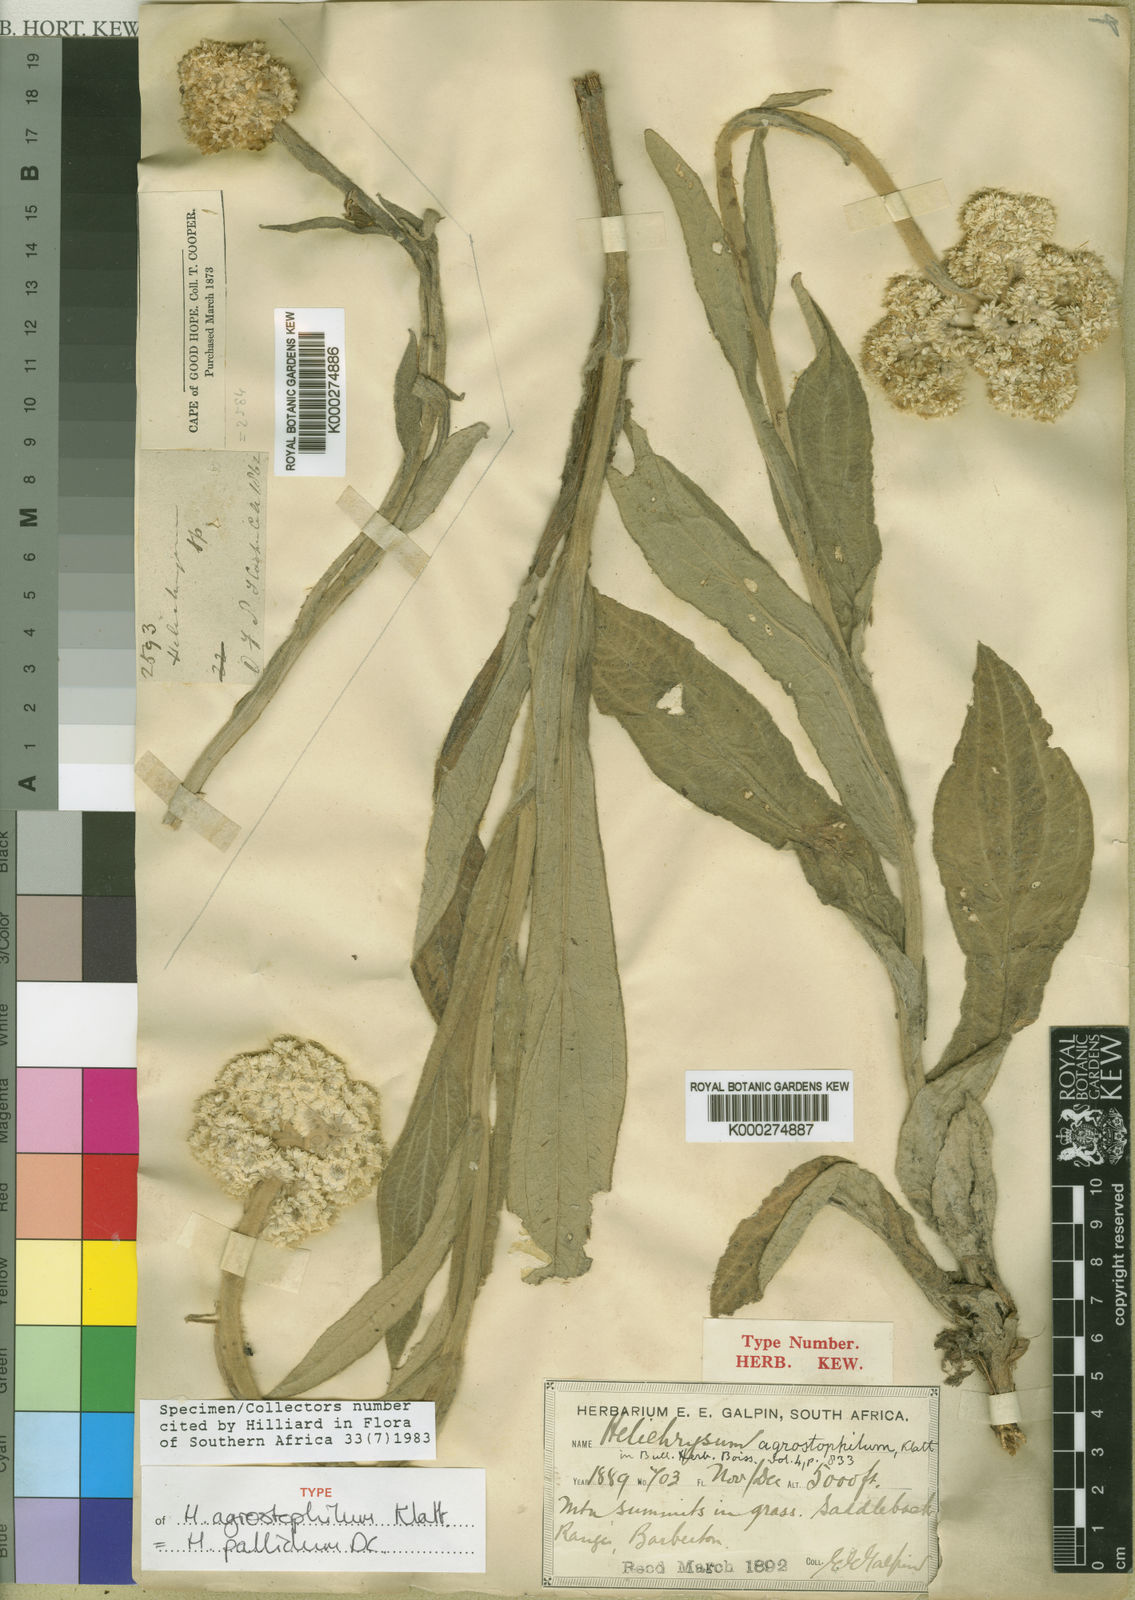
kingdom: Plantae
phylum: Tracheophyta
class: Magnoliopsida
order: Asterales
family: Asteraceae
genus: Helichrysum
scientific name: Helichrysum pallidum
